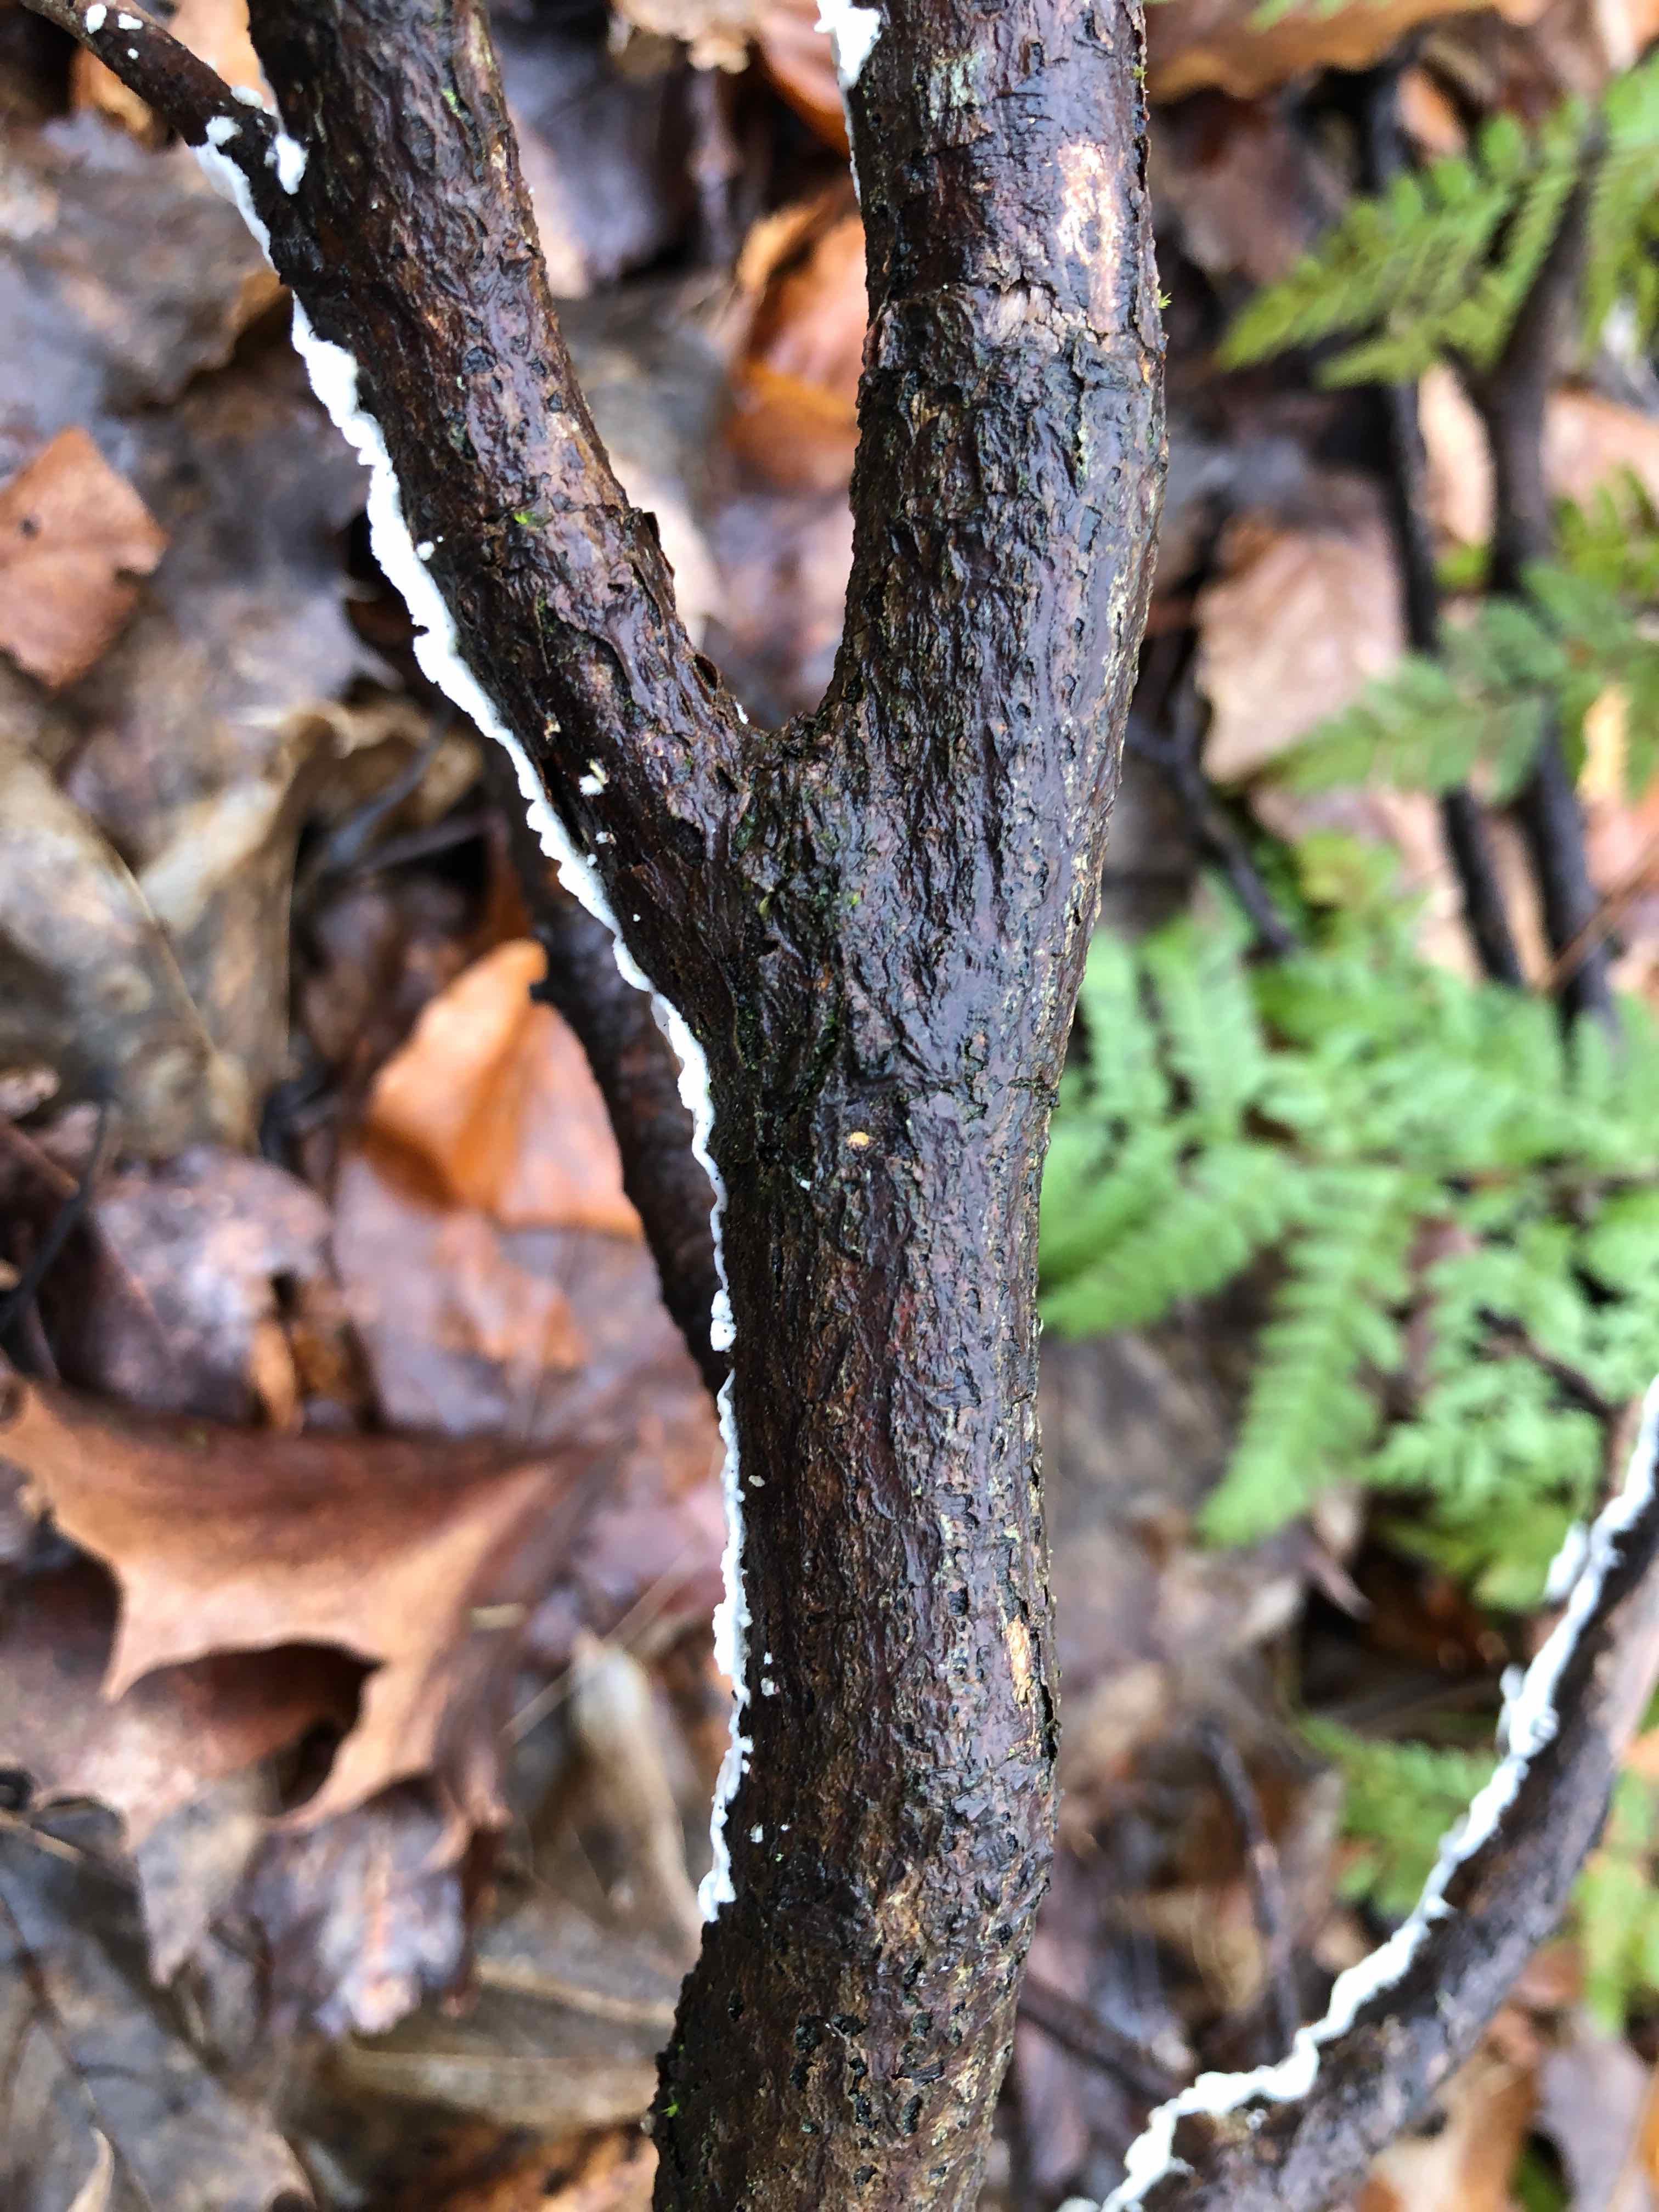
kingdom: Fungi
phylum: Basidiomycota
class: Agaricomycetes
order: Polyporales
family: Irpicaceae
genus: Byssomerulius
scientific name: Byssomerulius corium
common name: læder-åresvamp
